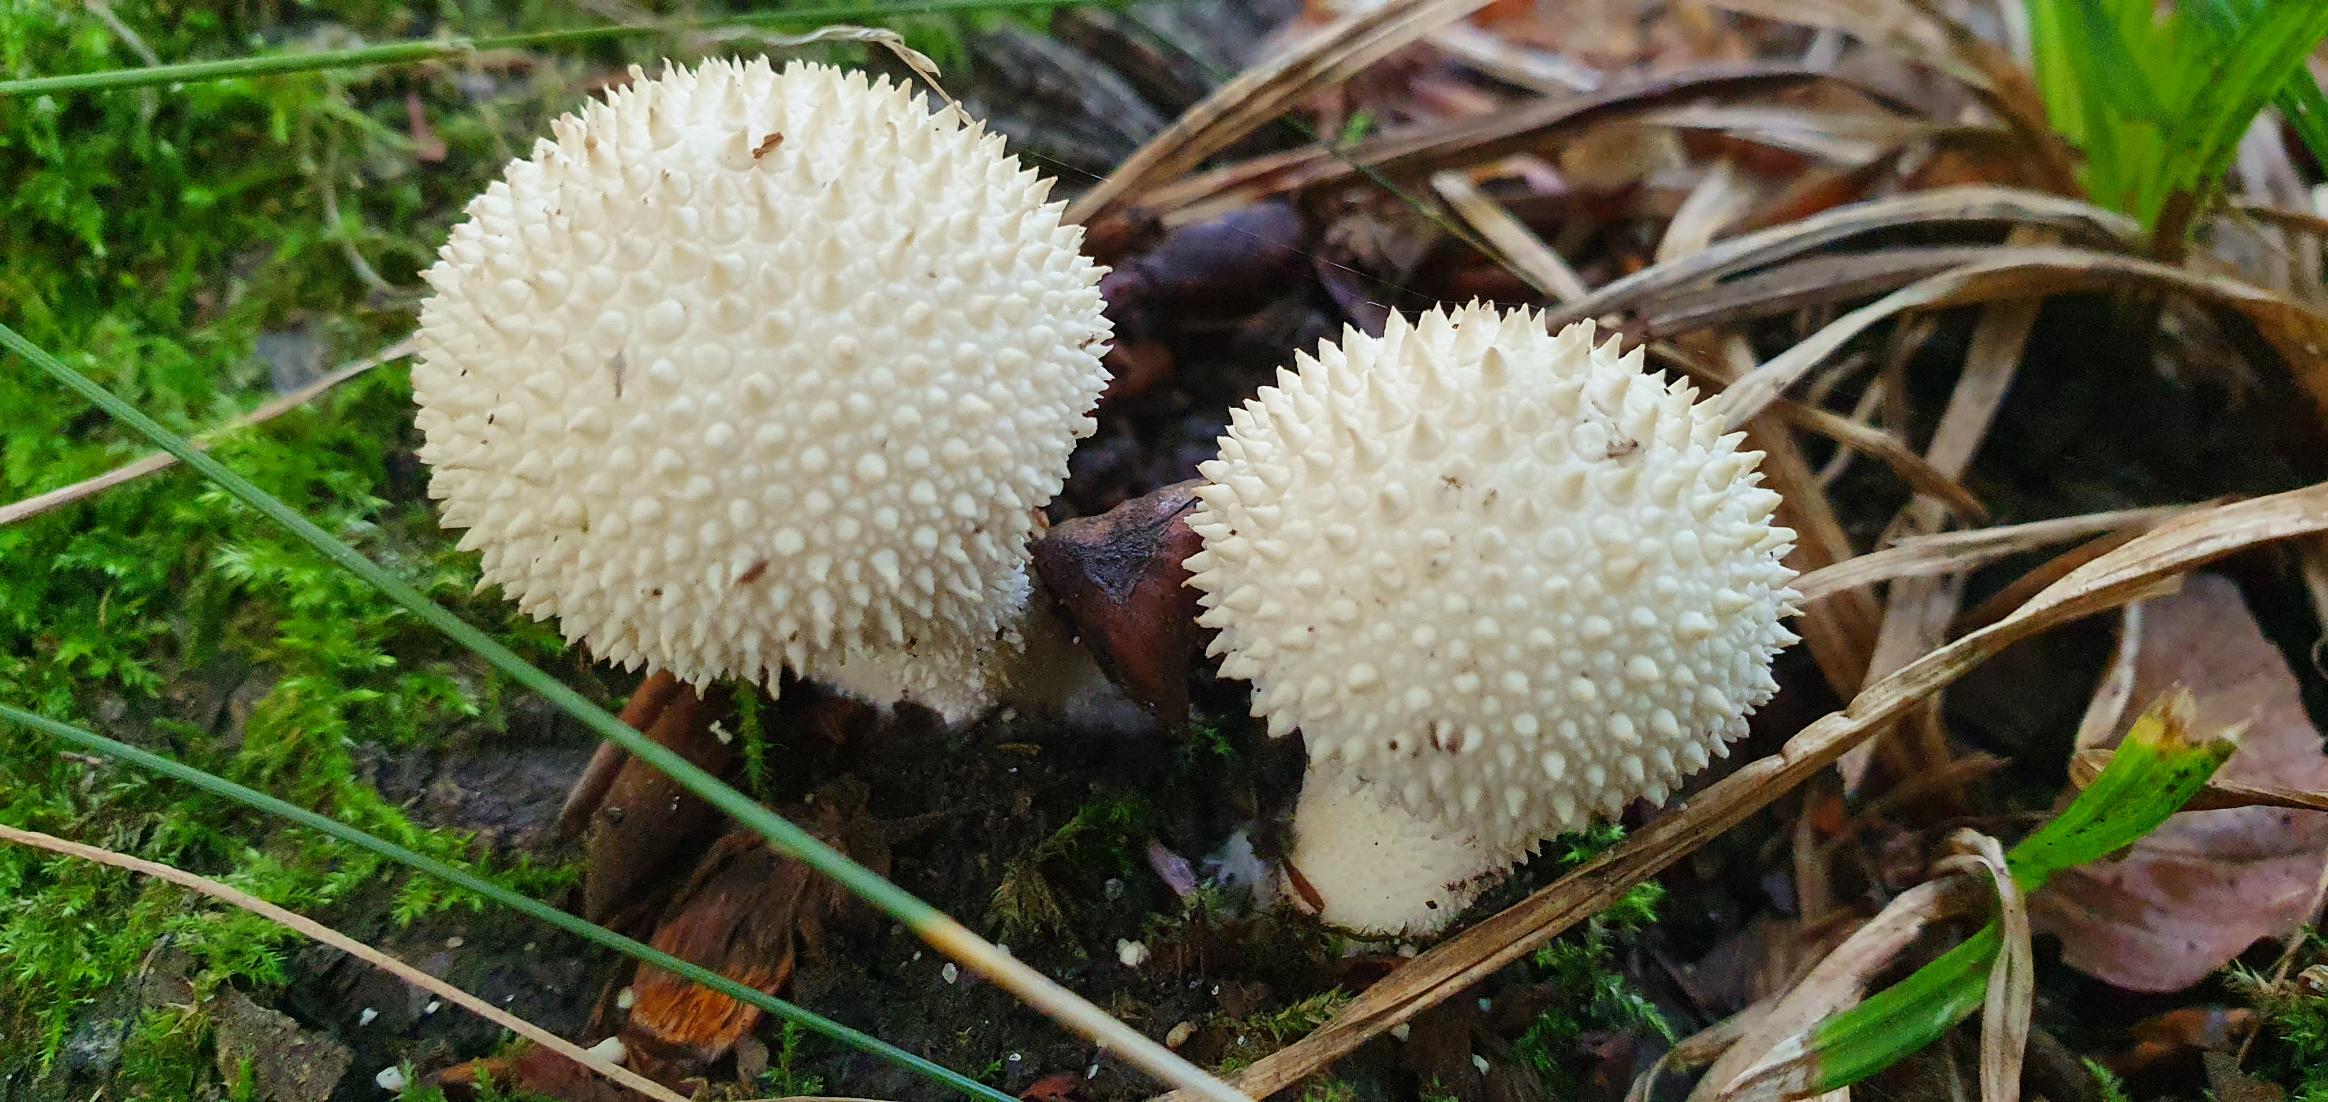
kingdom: Fungi
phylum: Basidiomycota
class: Agaricomycetes
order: Agaricales
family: Lycoperdaceae
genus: Lycoperdon
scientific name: Lycoperdon perlatum
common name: Krystal-støvbold
